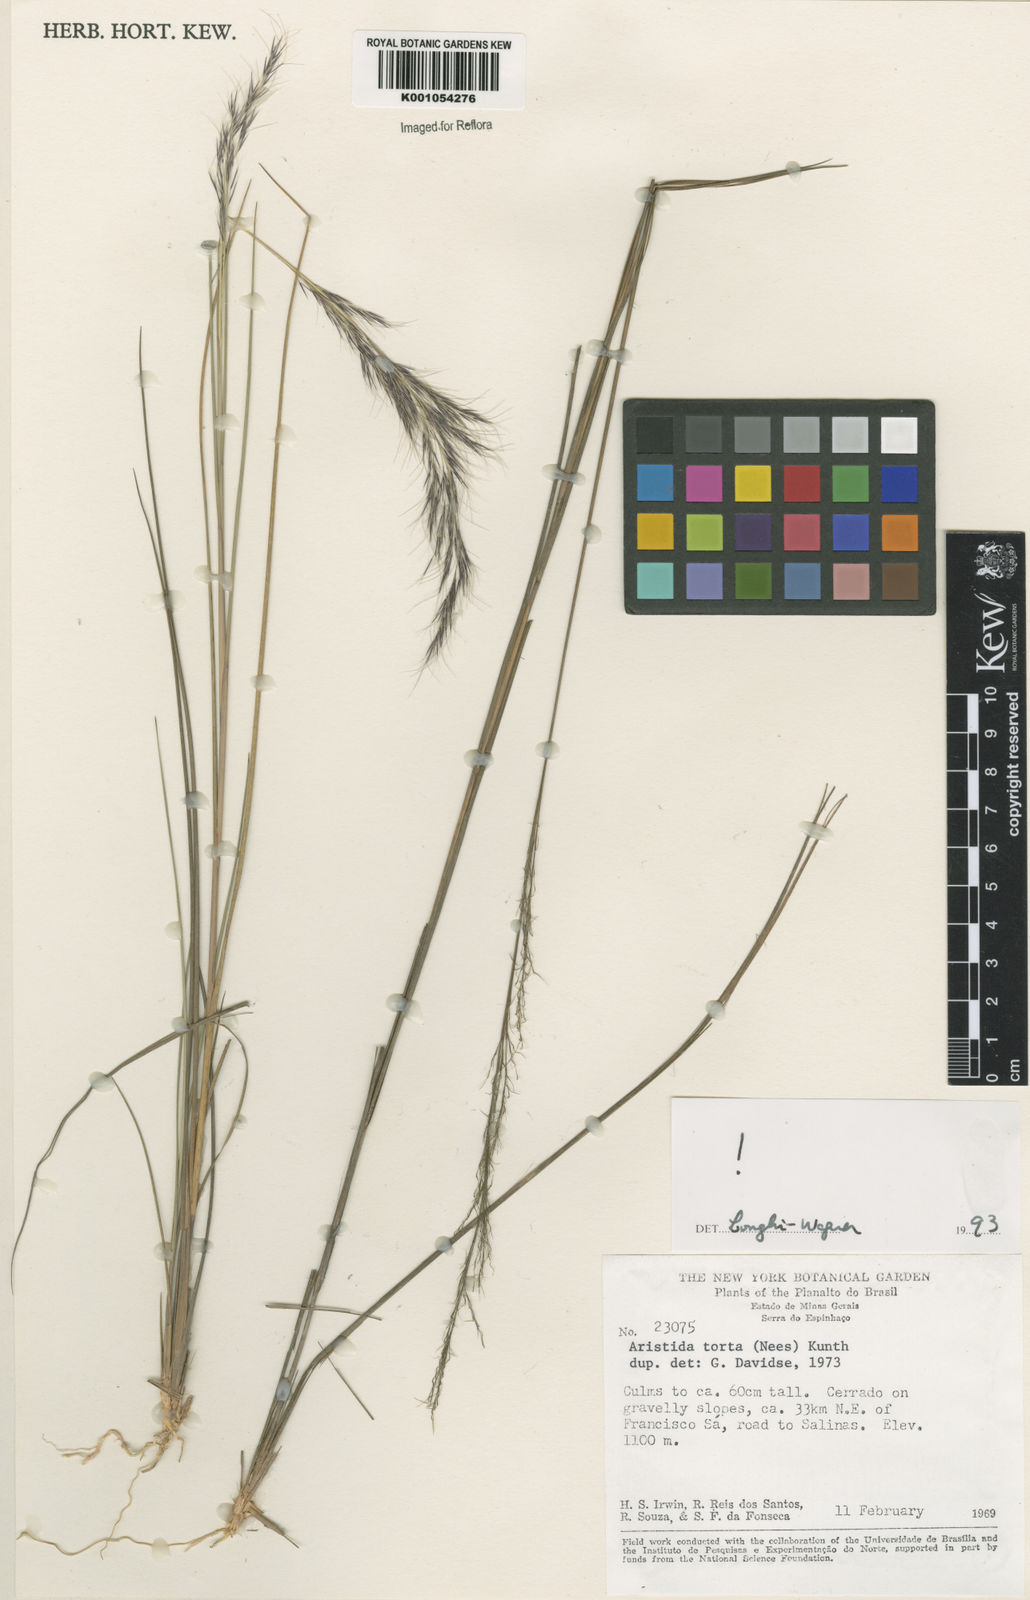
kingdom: Plantae
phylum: Tracheophyta
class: Liliopsida
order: Poales
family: Poaceae
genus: Aristida
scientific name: Aristida torta
